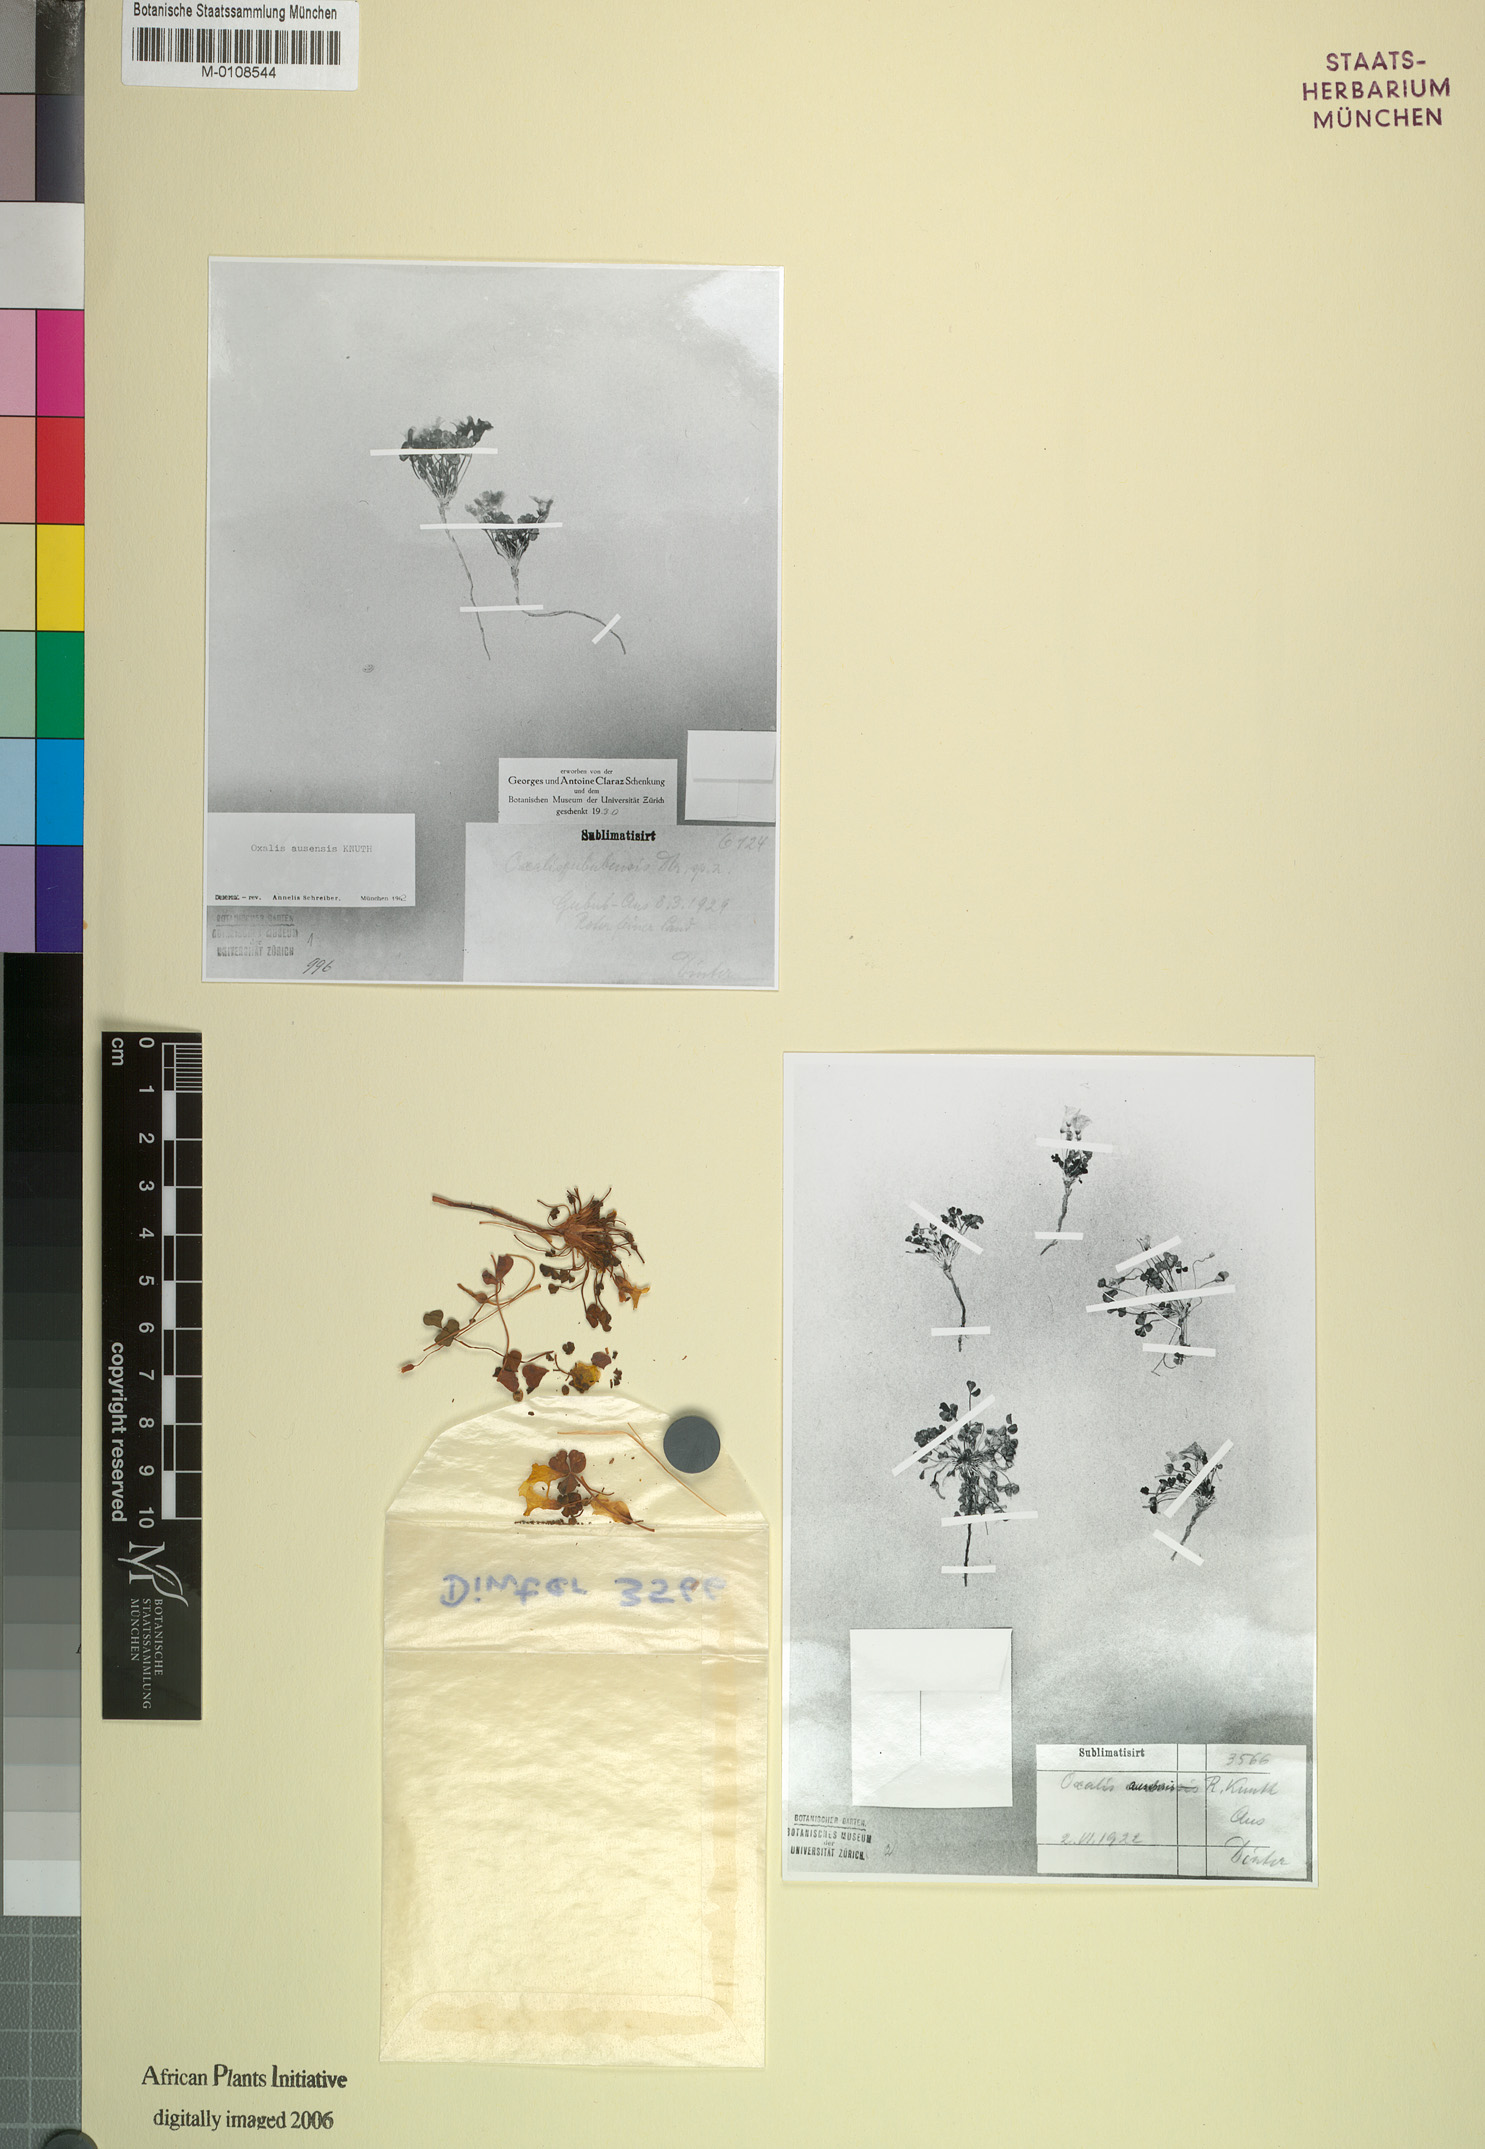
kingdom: Plantae
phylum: Tracheophyta
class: Magnoliopsida
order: Oxalidales
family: Oxalidaceae
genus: Oxalis
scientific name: Oxalis ausensis
